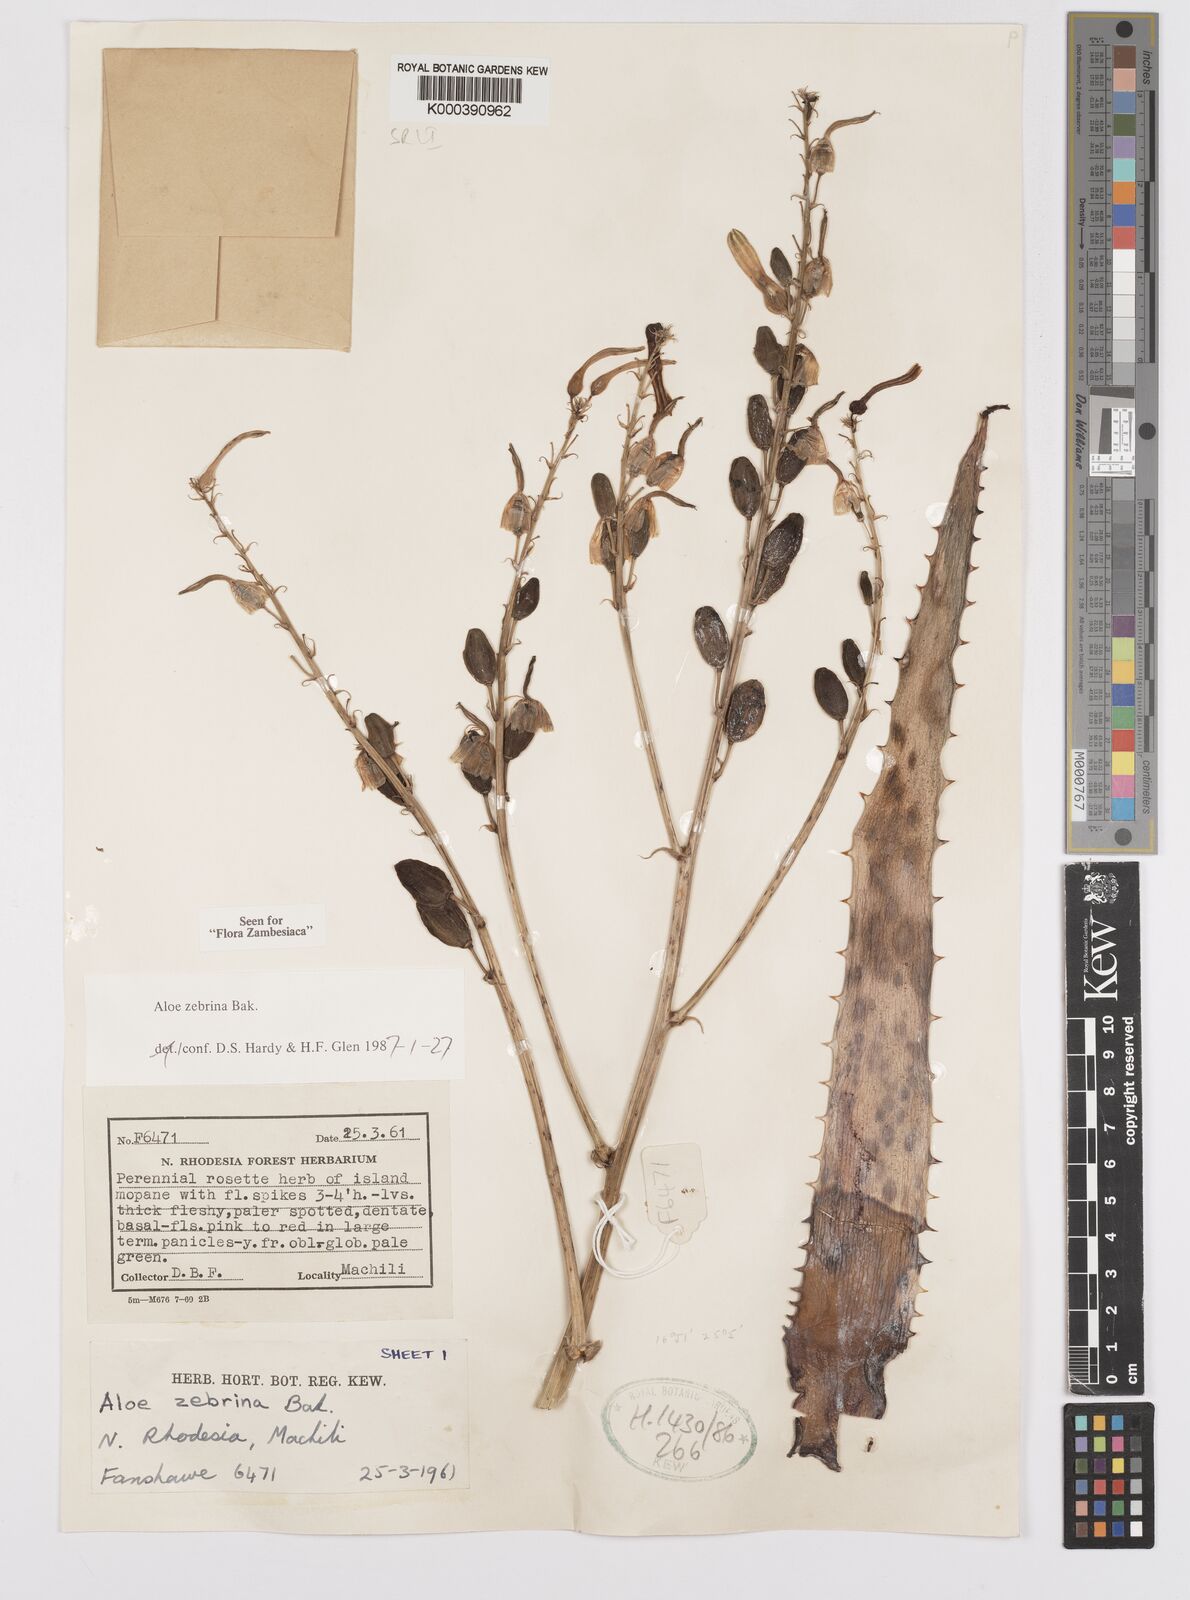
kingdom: Plantae
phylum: Tracheophyta
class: Liliopsida
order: Asparagales
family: Asphodelaceae
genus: Aloe
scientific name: Aloe zebrina
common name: Zebra-leaf aloe
